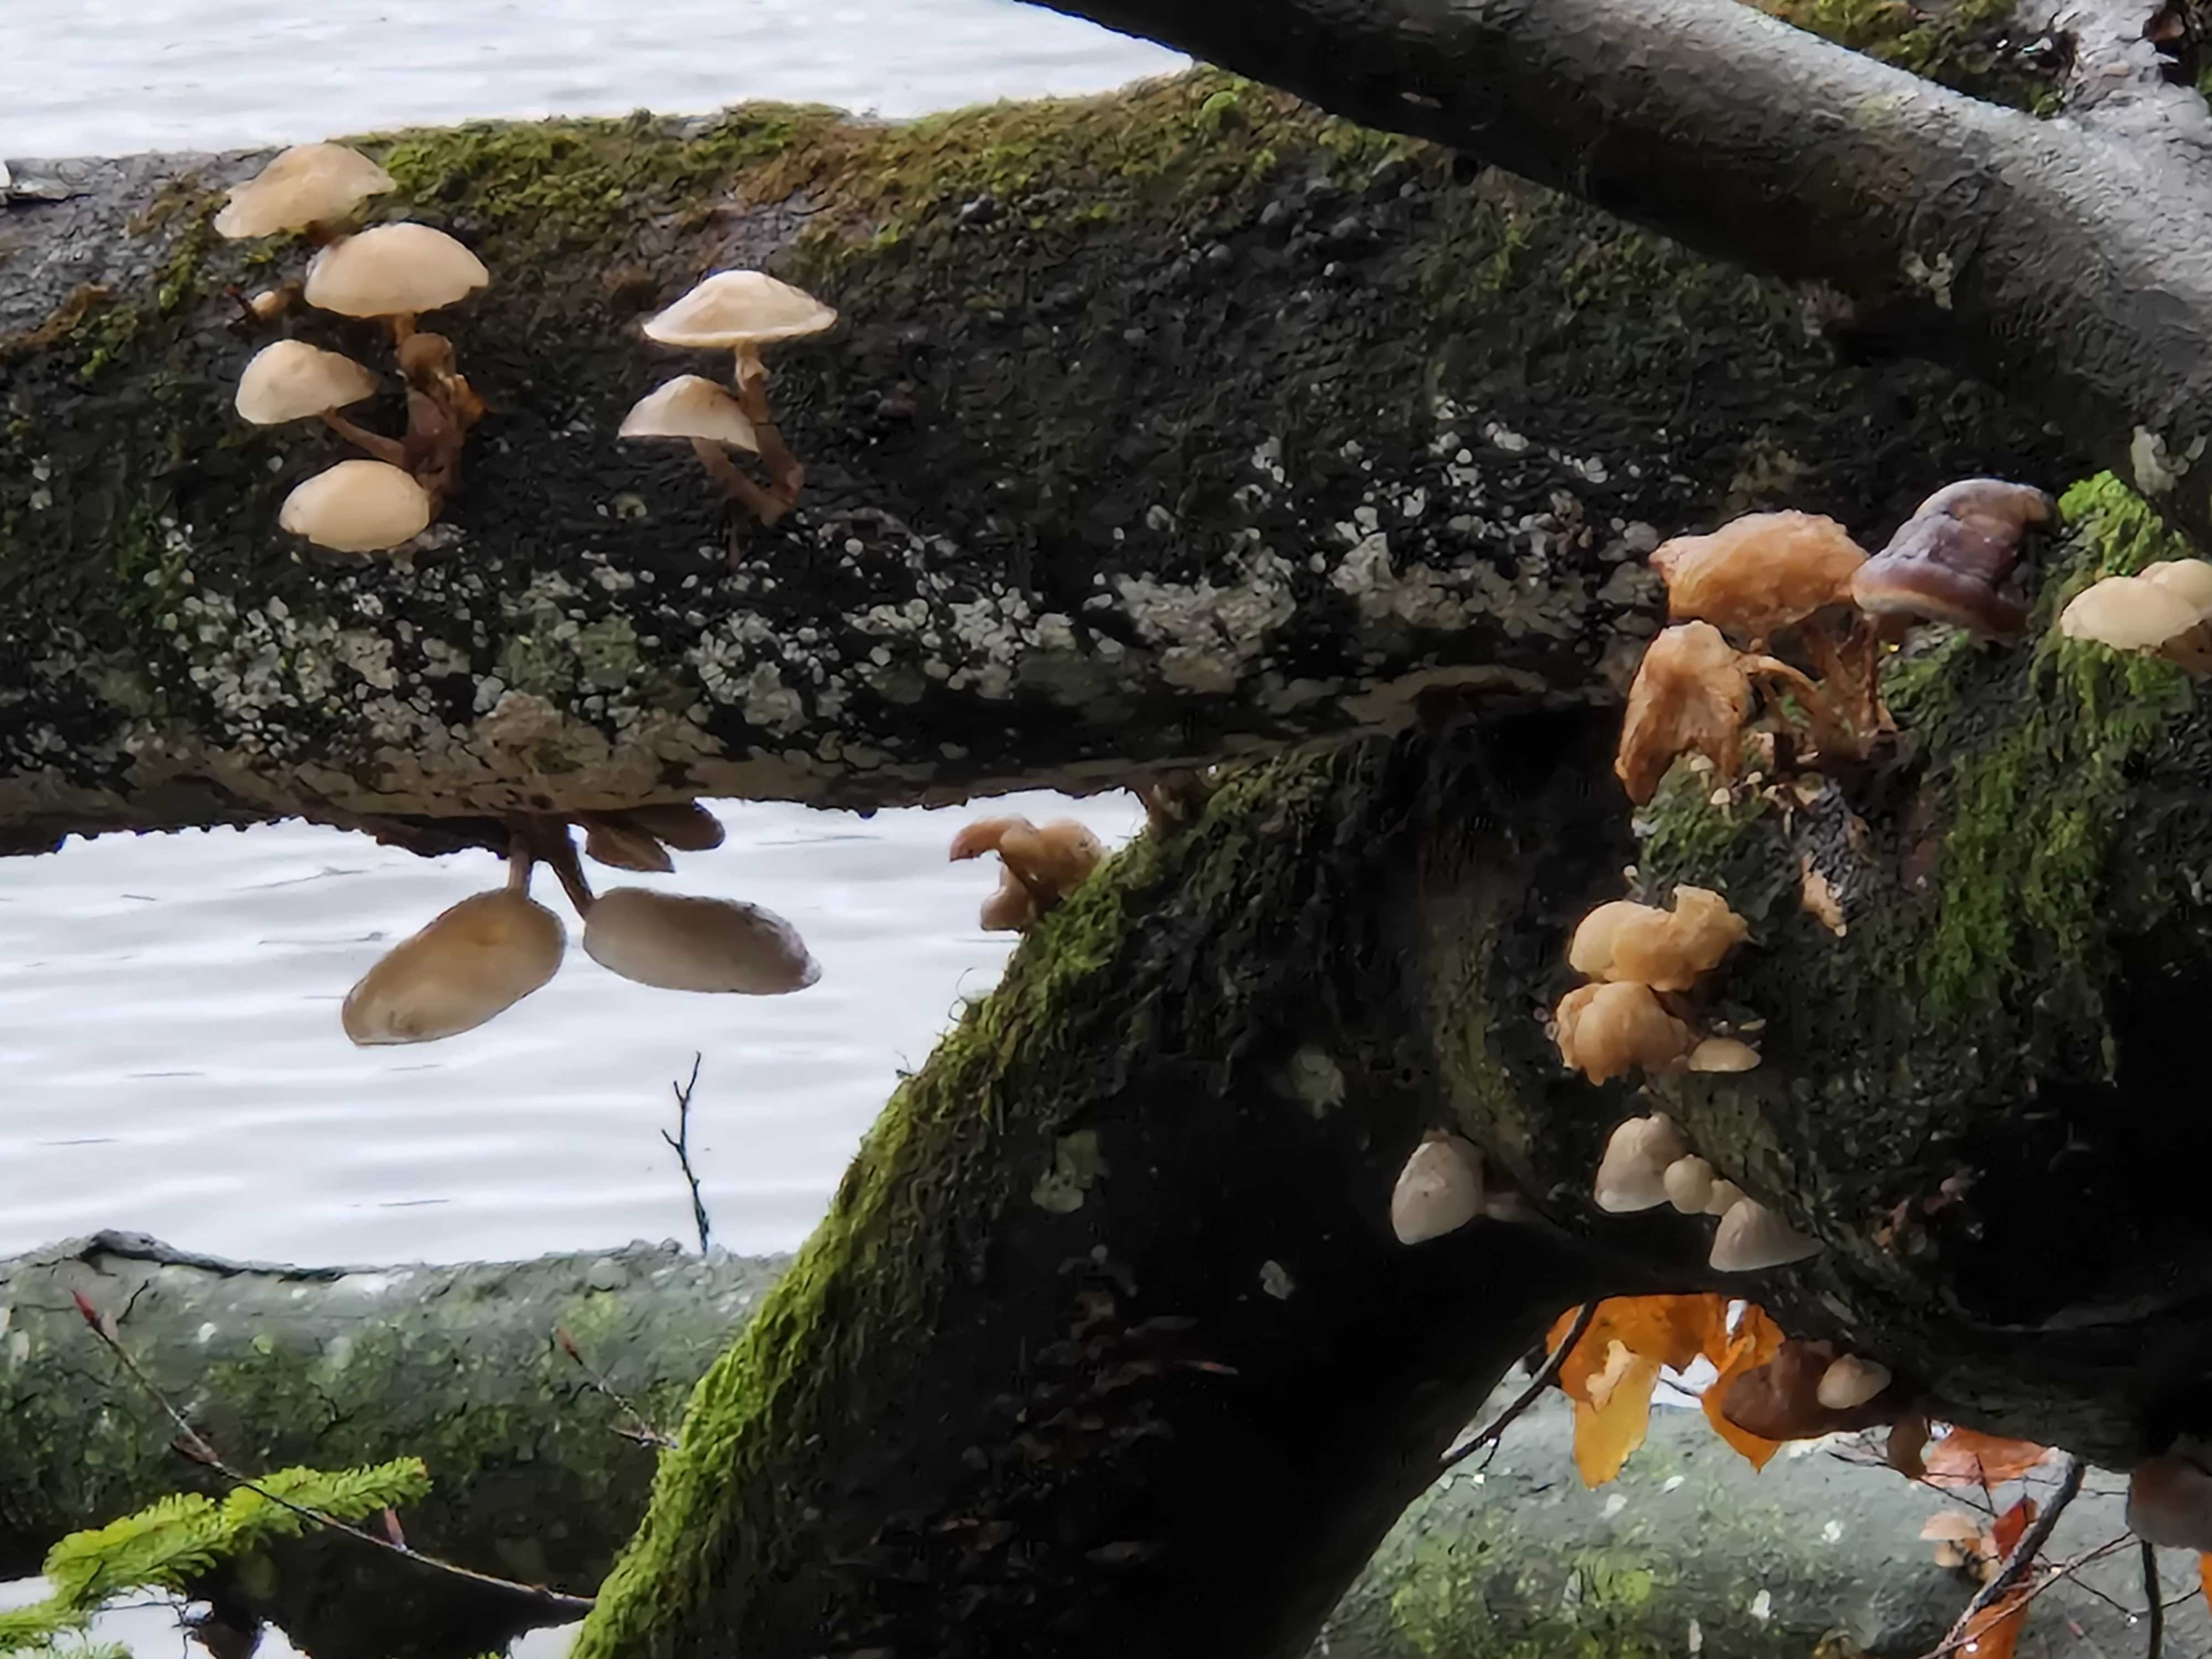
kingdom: Fungi
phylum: Basidiomycota
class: Agaricomycetes
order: Agaricales
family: Physalacriaceae
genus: Mucidula
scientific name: Mucidula mucida
